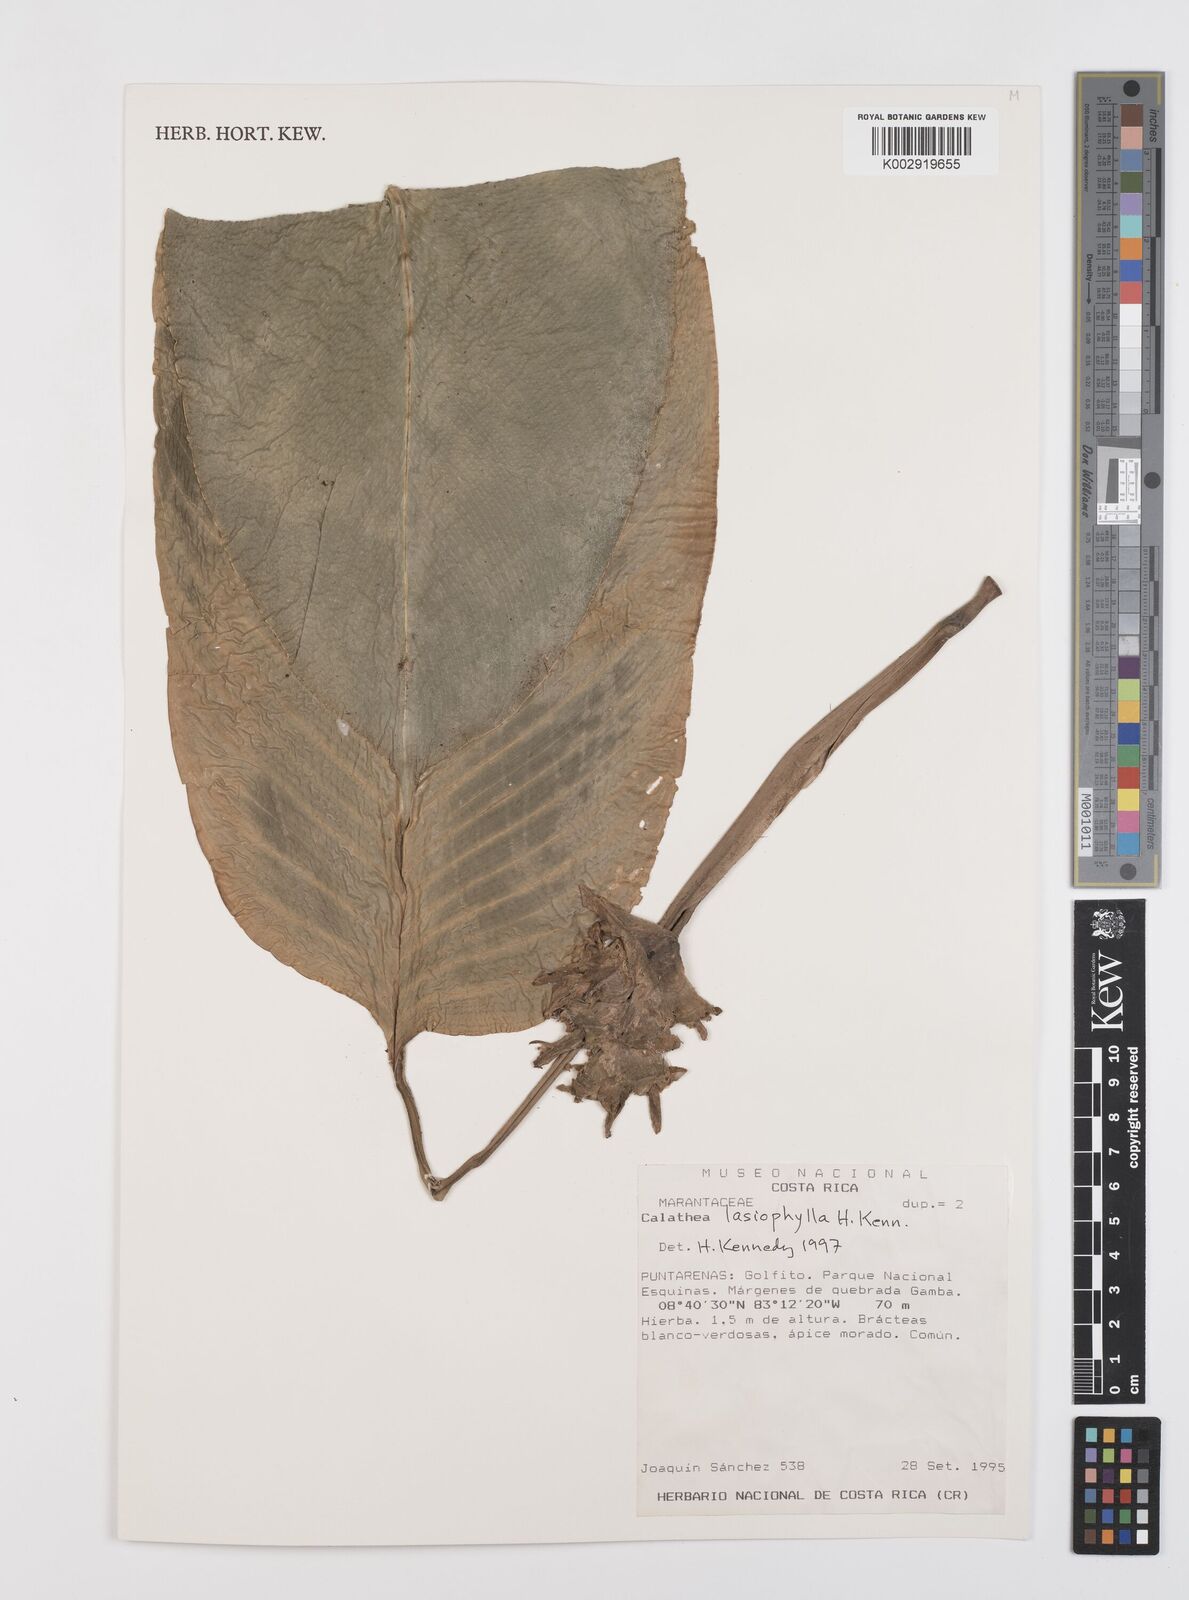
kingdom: Plantae
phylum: Tracheophyta
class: Liliopsida
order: Zingiberales
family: Marantaceae
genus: Goeppertia
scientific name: Goeppertia lasiophylla
